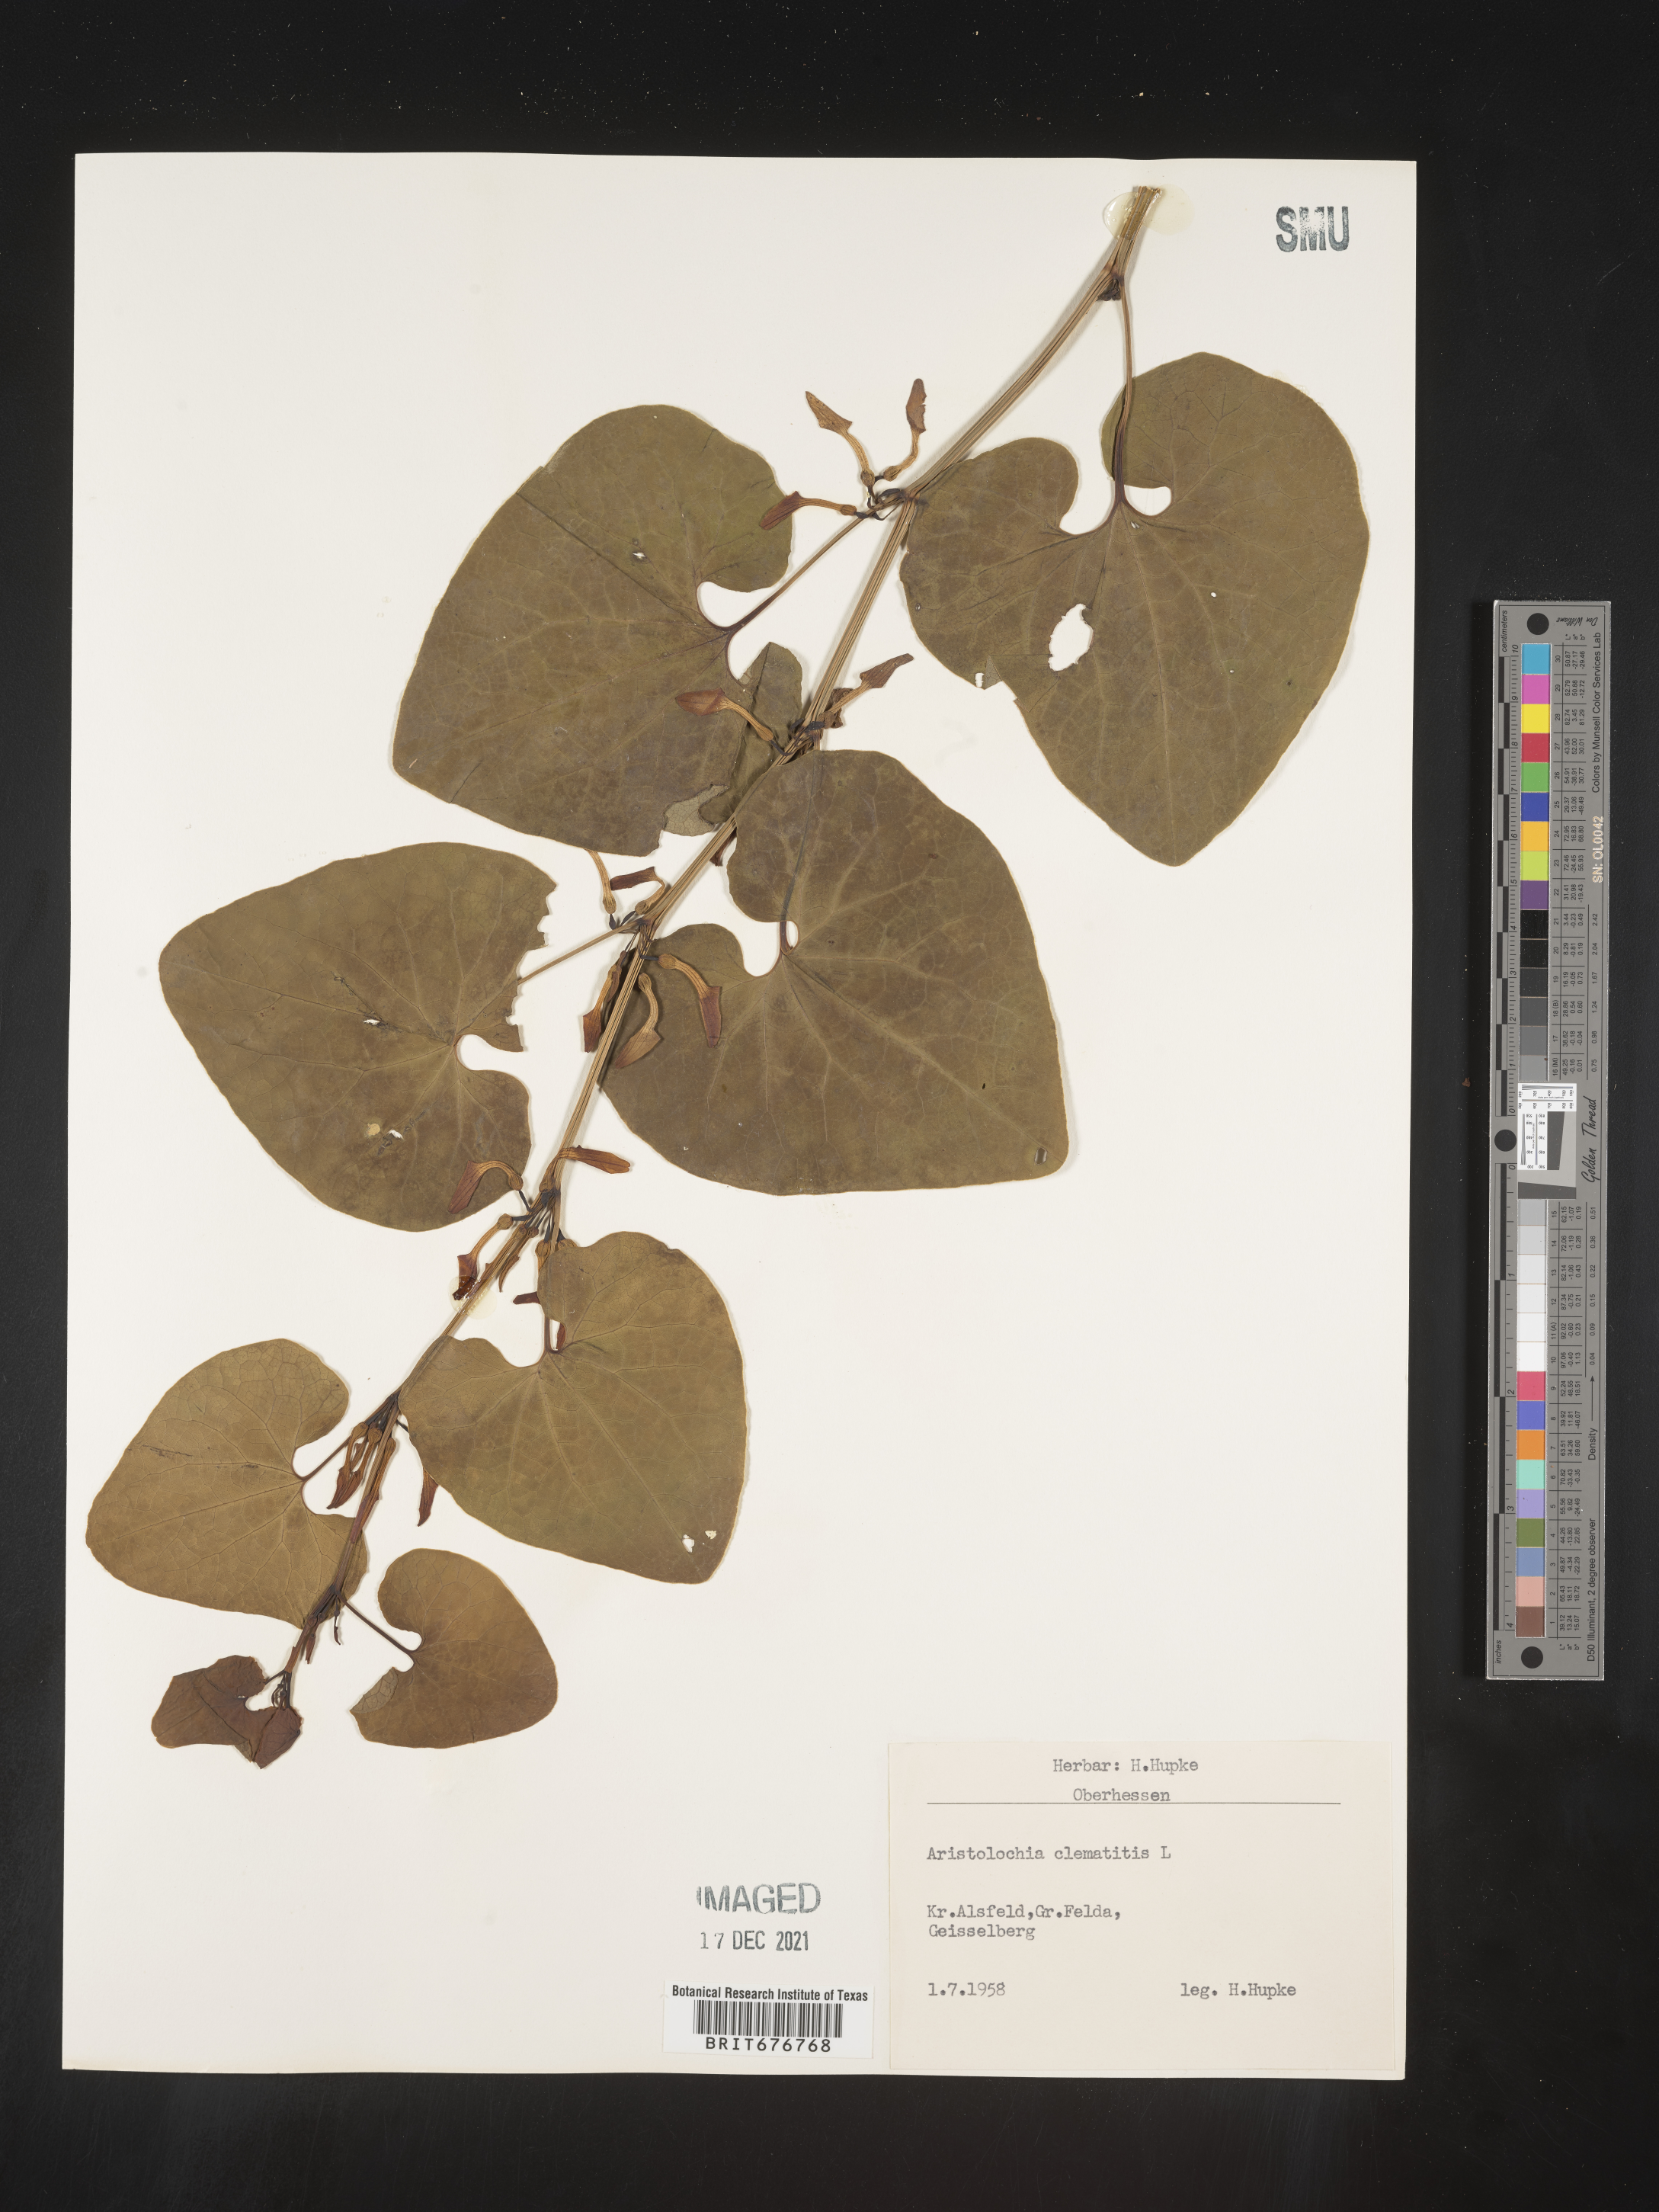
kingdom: Plantae
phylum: Tracheophyta
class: Magnoliopsida
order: Piperales
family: Aristolochiaceae
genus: Aristolochia
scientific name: Aristolochia
